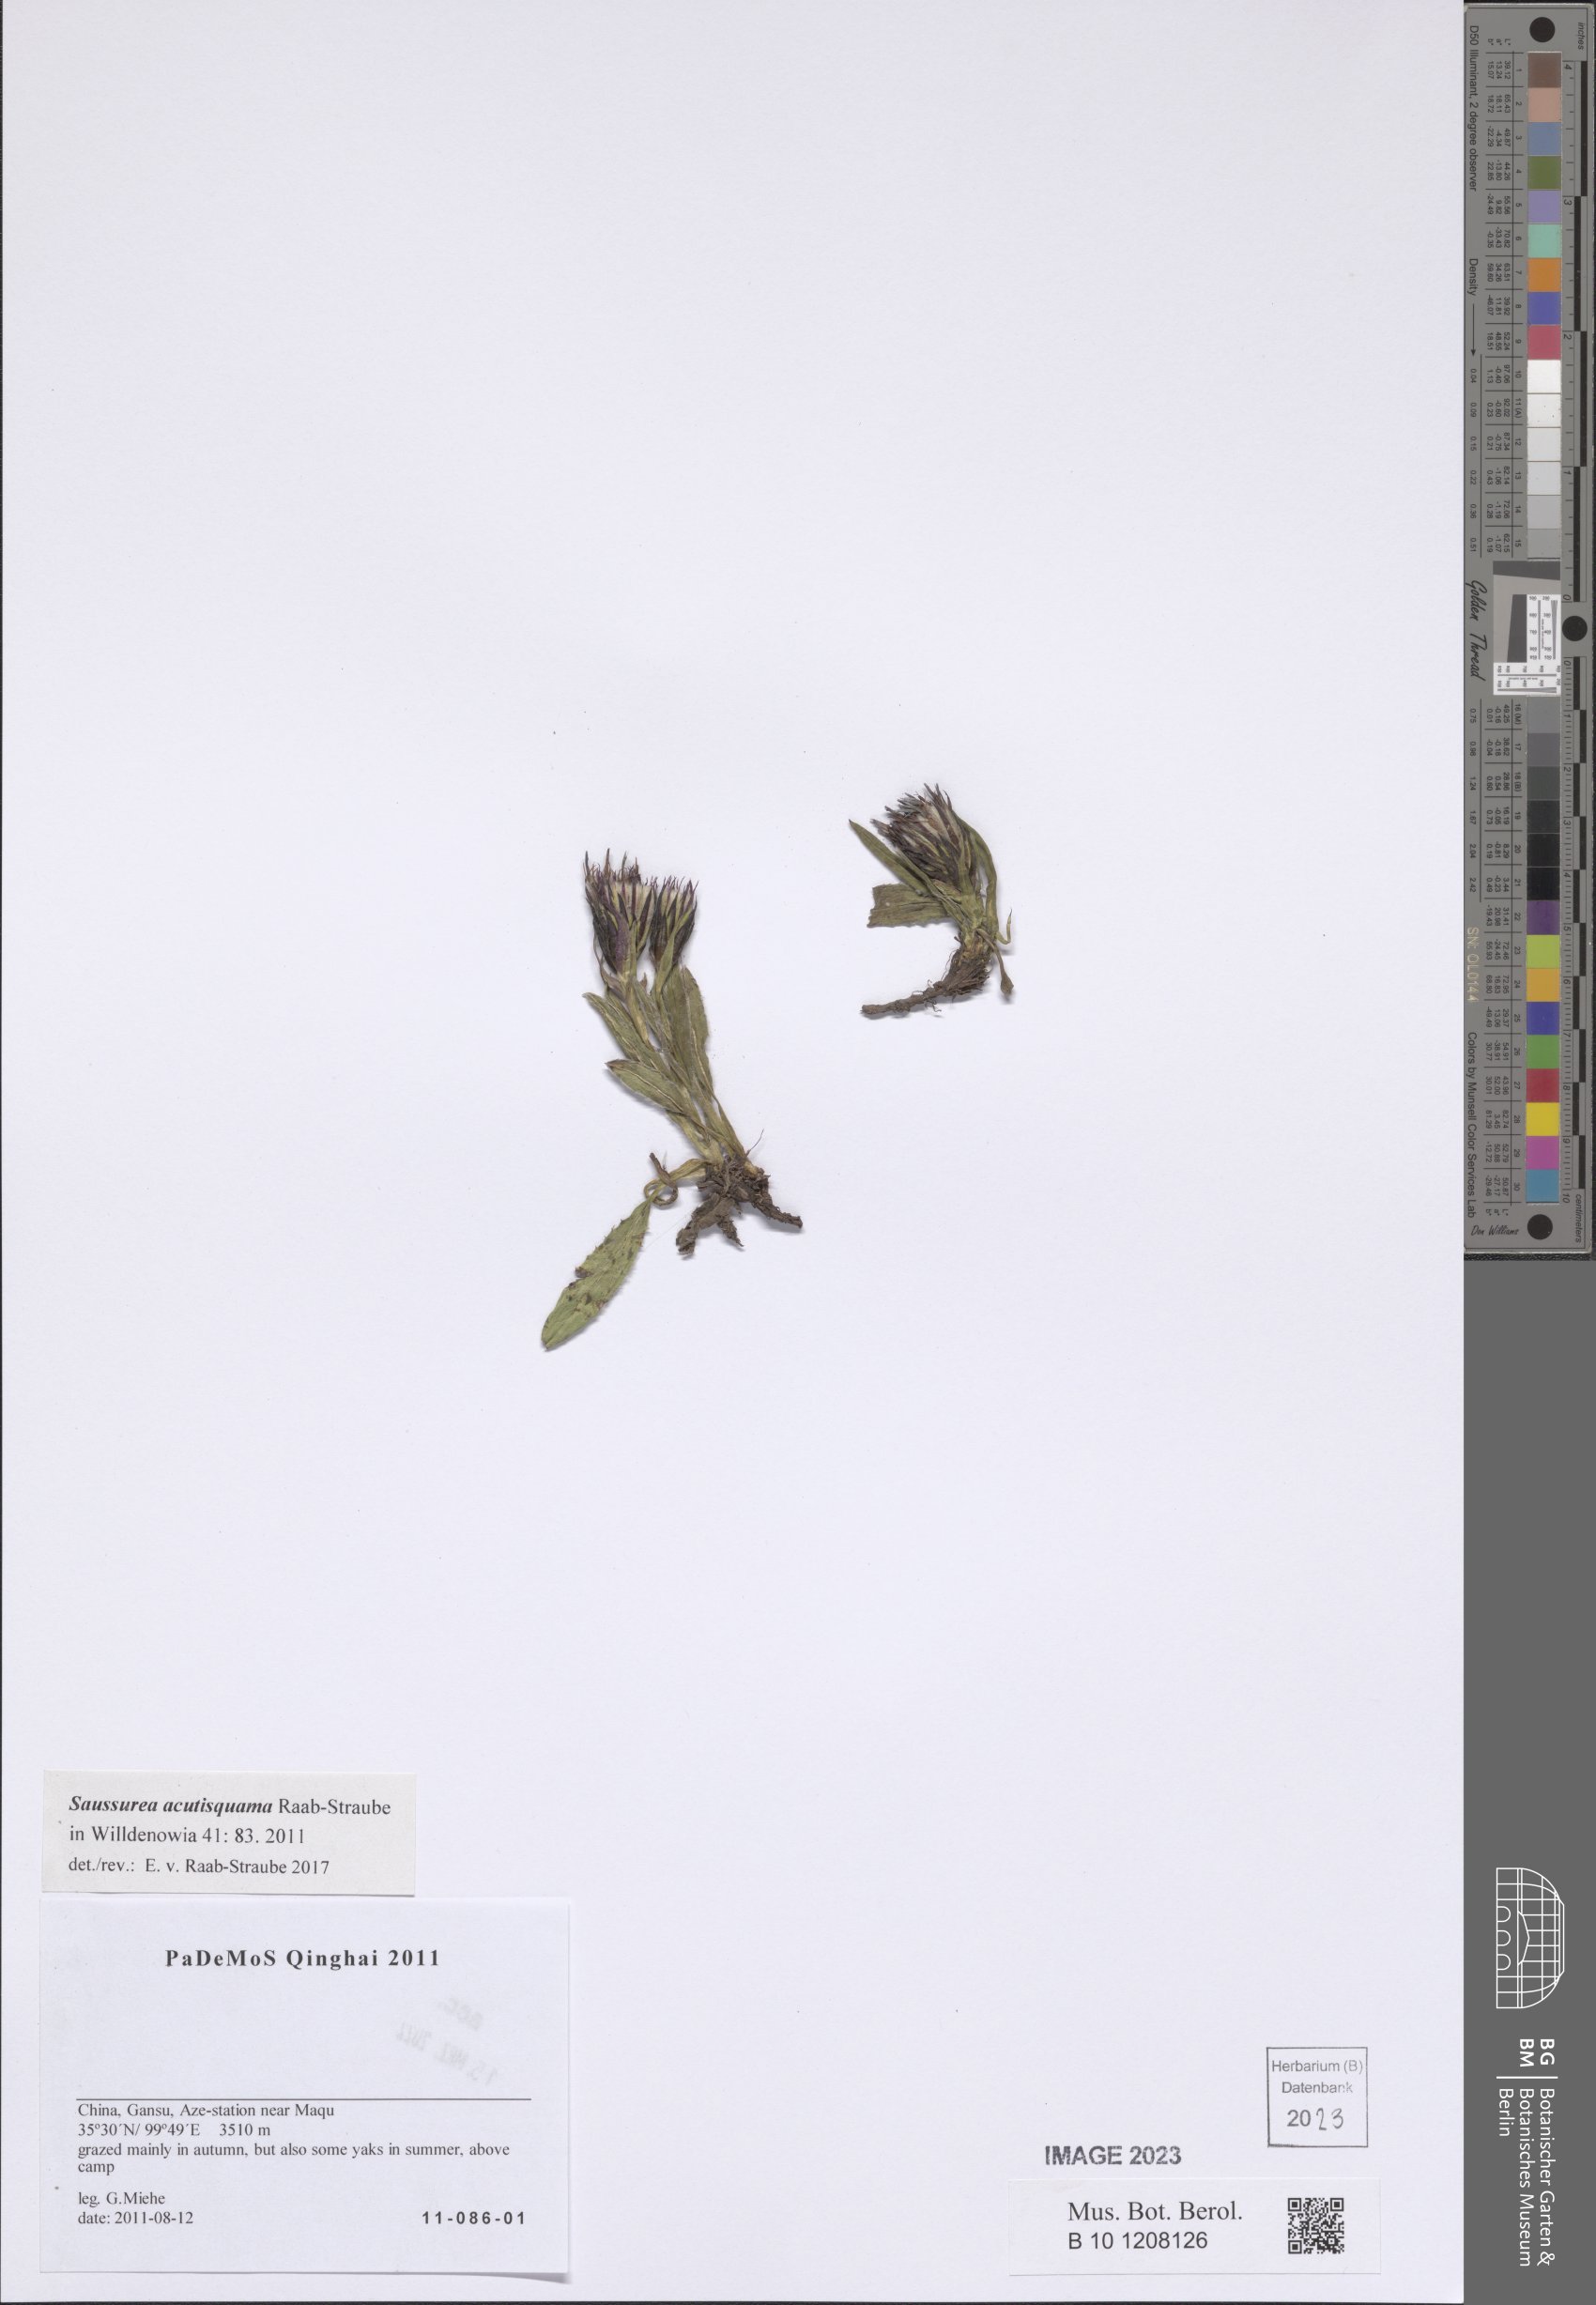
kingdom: Plantae
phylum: Tracheophyta
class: Magnoliopsida
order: Asterales
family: Asteraceae
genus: Saussurea
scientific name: Saussurea acutisquama
